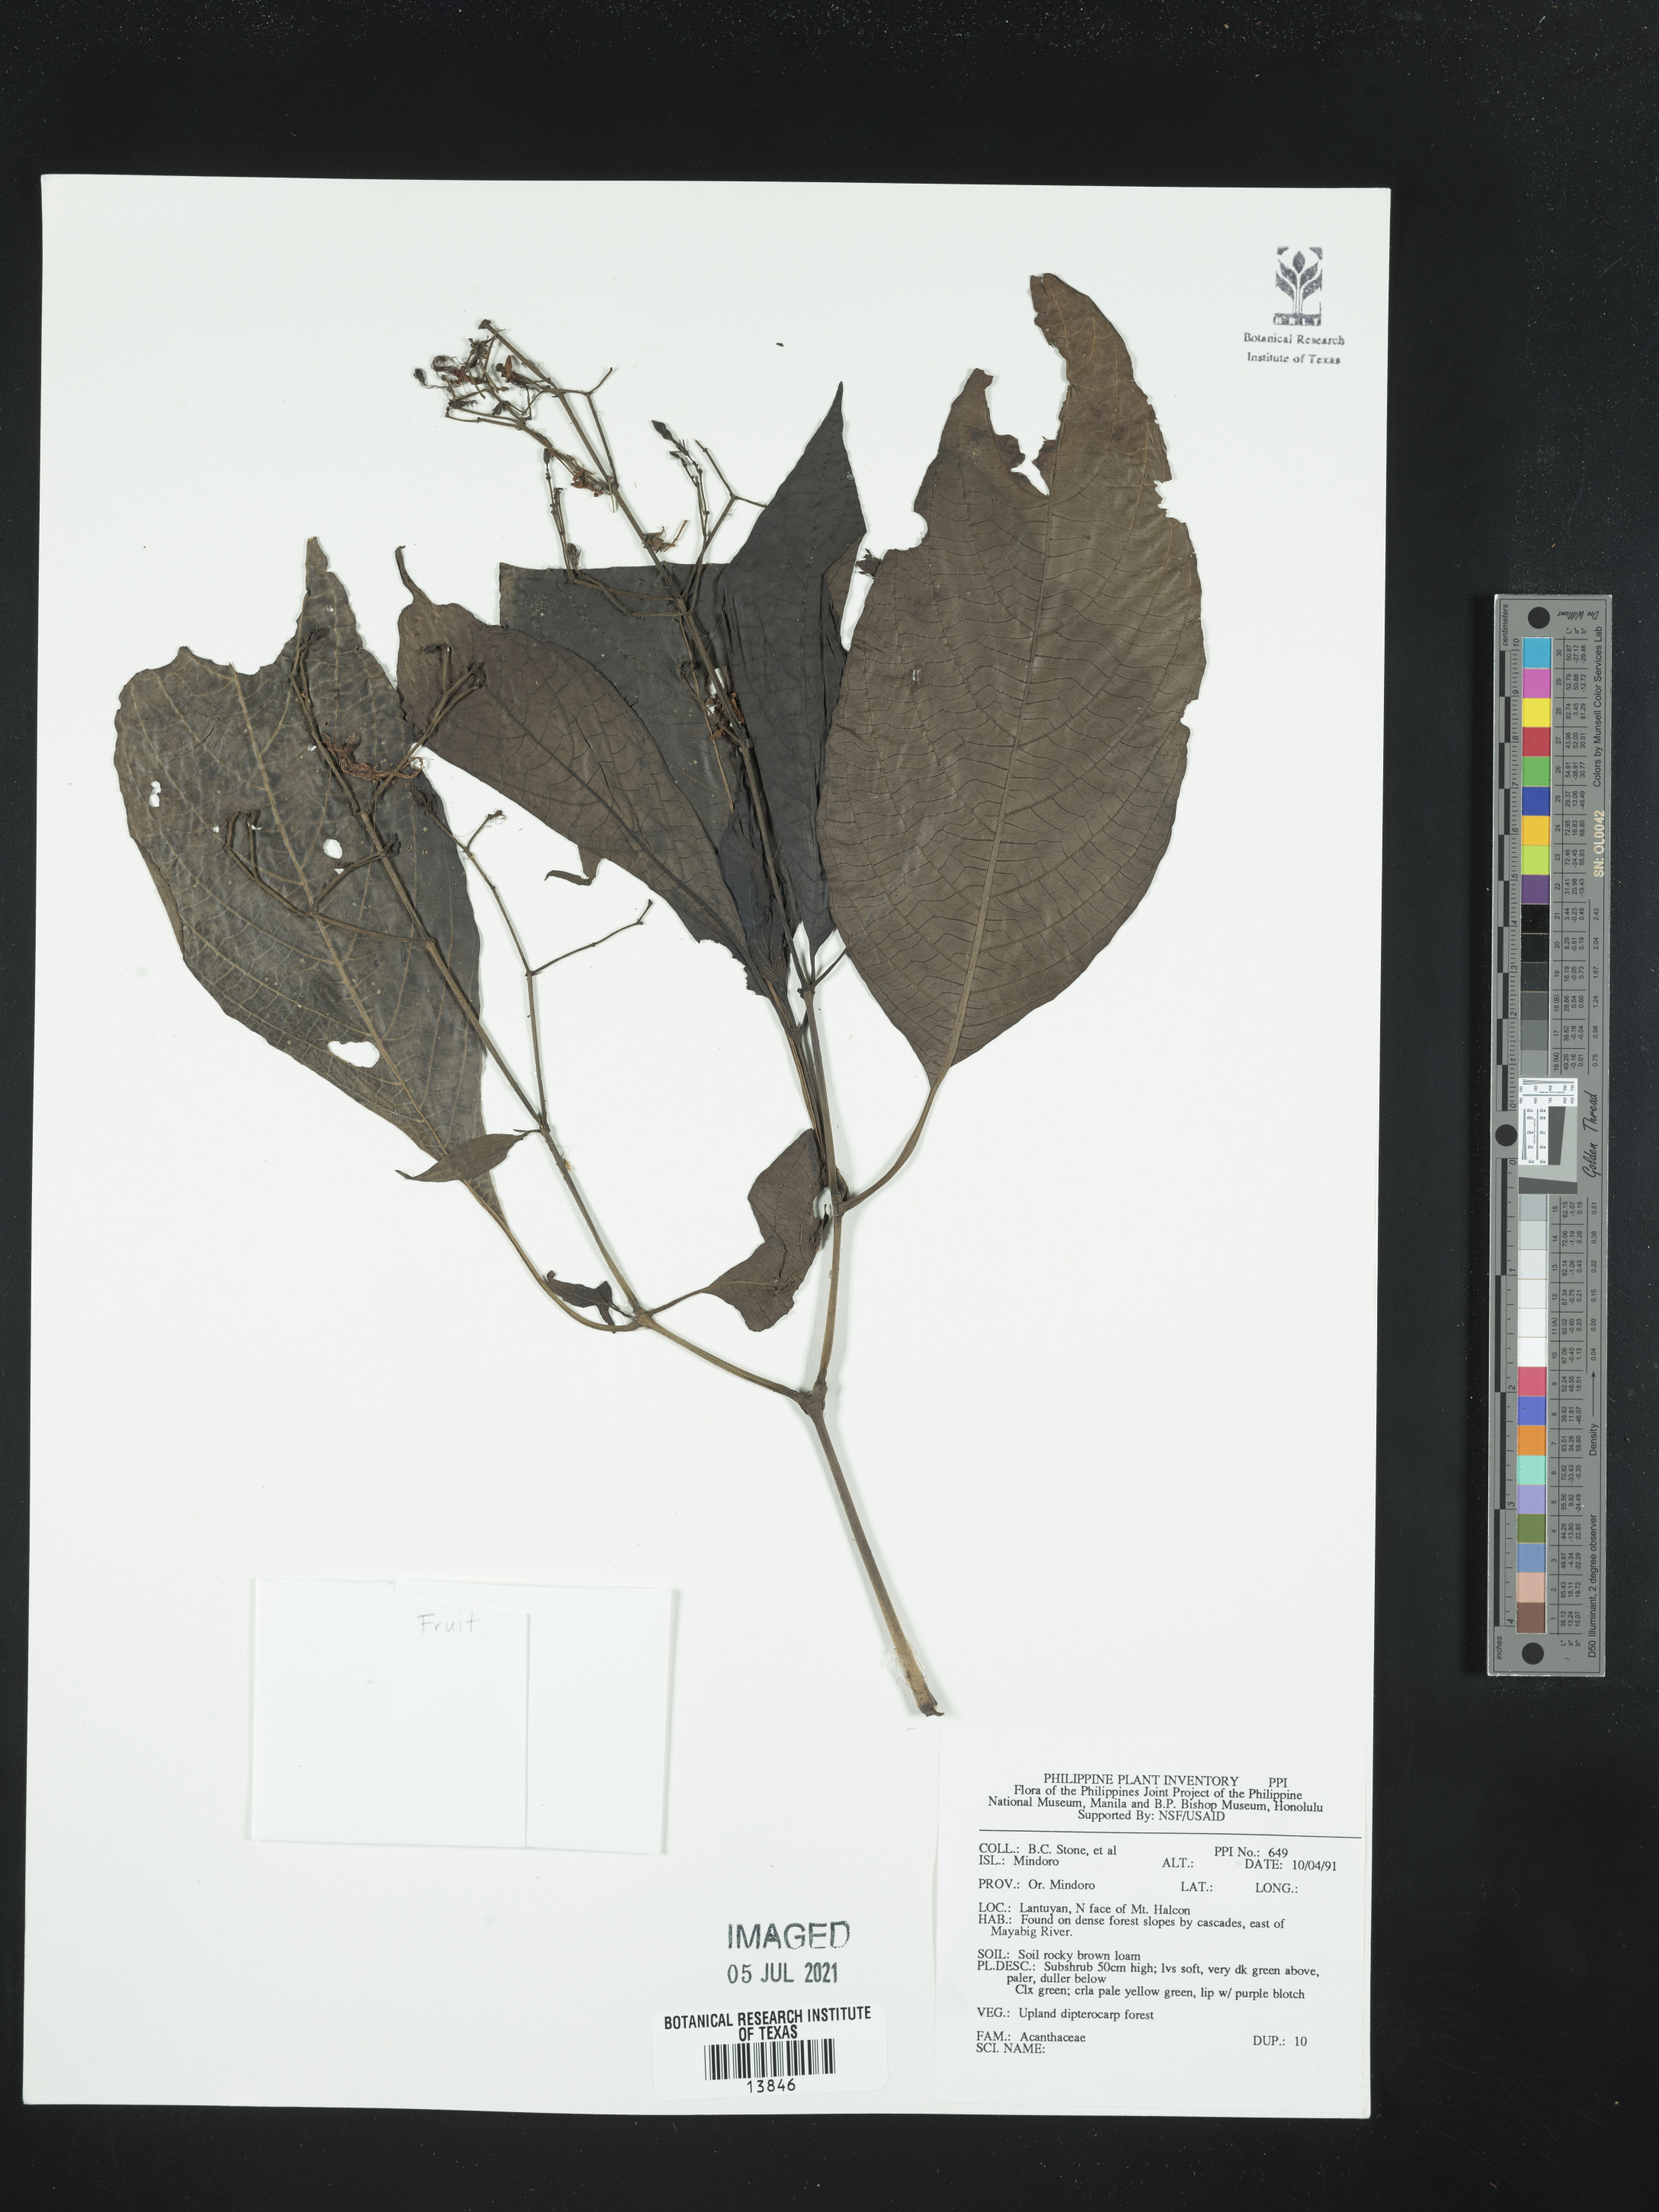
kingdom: Plantae
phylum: Tracheophyta
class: Magnoliopsida
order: Lamiales
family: Acanthaceae
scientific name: Acanthaceae
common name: Acanthaceae
